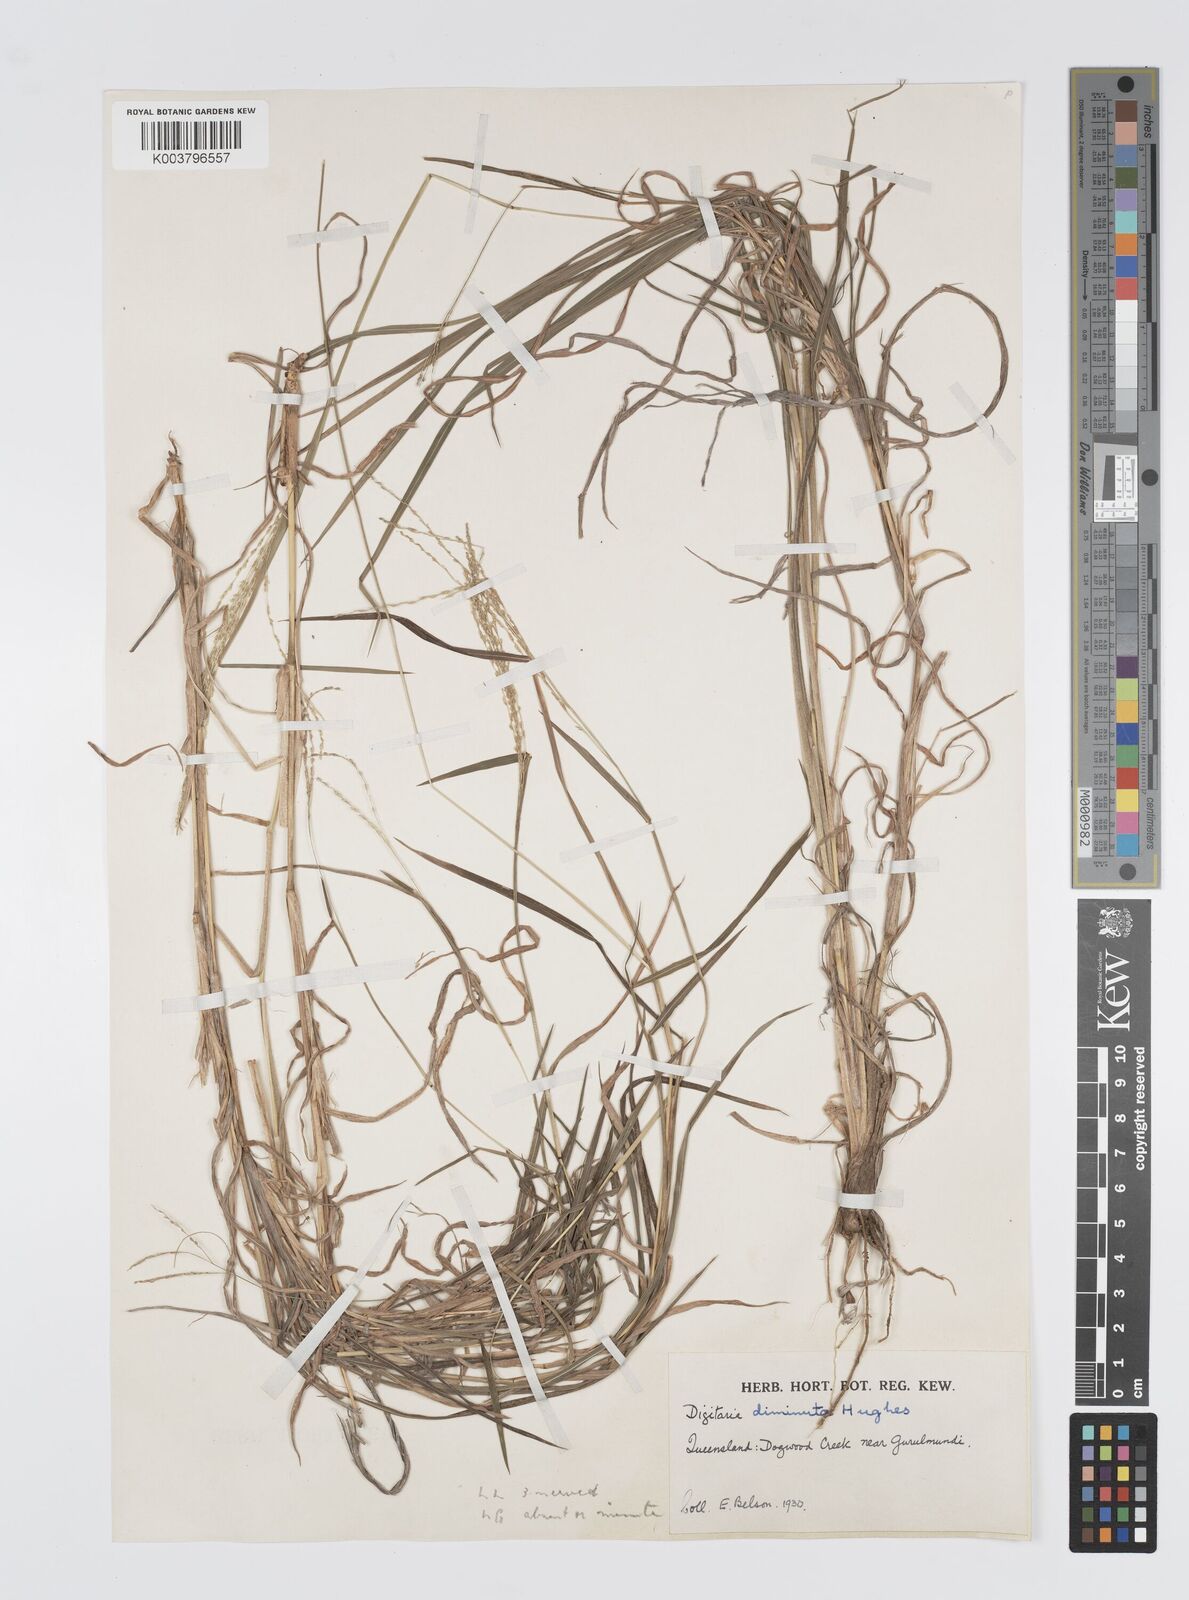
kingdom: Plantae
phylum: Tracheophyta
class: Liliopsida
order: Poales
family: Poaceae
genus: Digitaria
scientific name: Digitaria breviglumis
